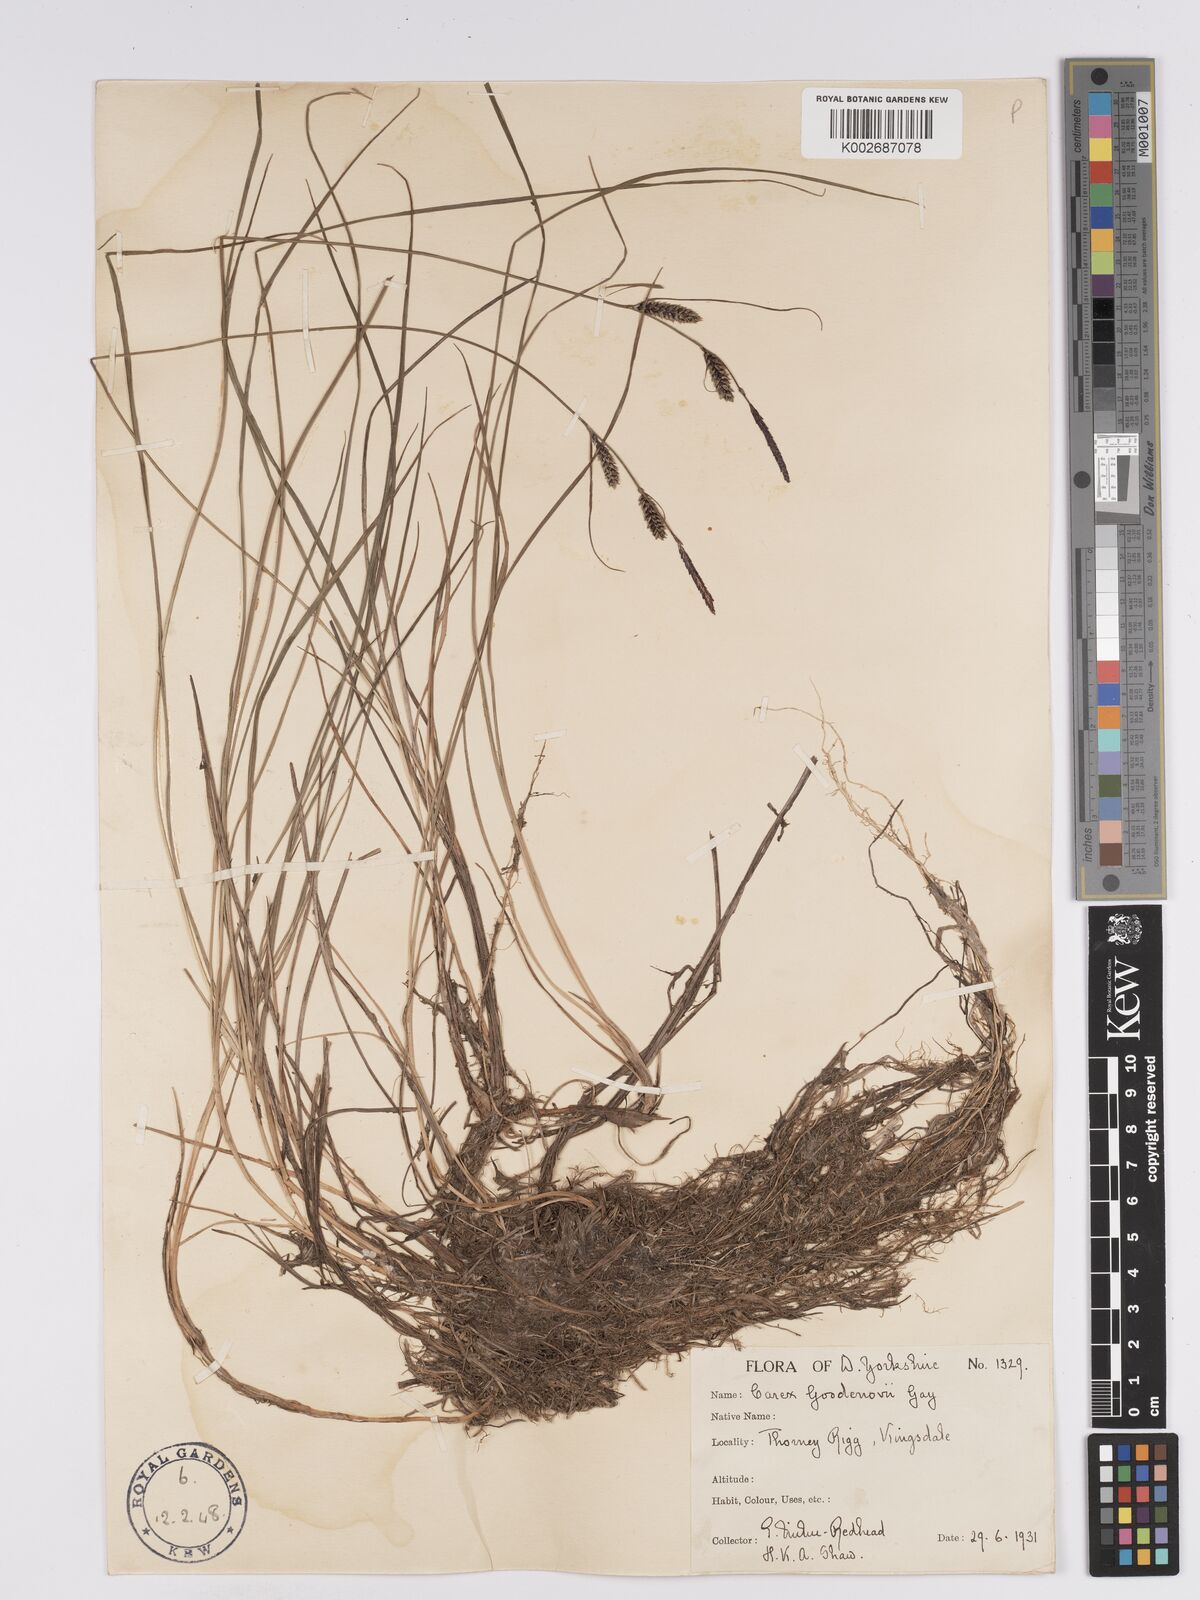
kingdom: Plantae
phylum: Tracheophyta
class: Liliopsida
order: Poales
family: Cyperaceae
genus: Carex
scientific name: Carex nigra
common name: Common sedge
